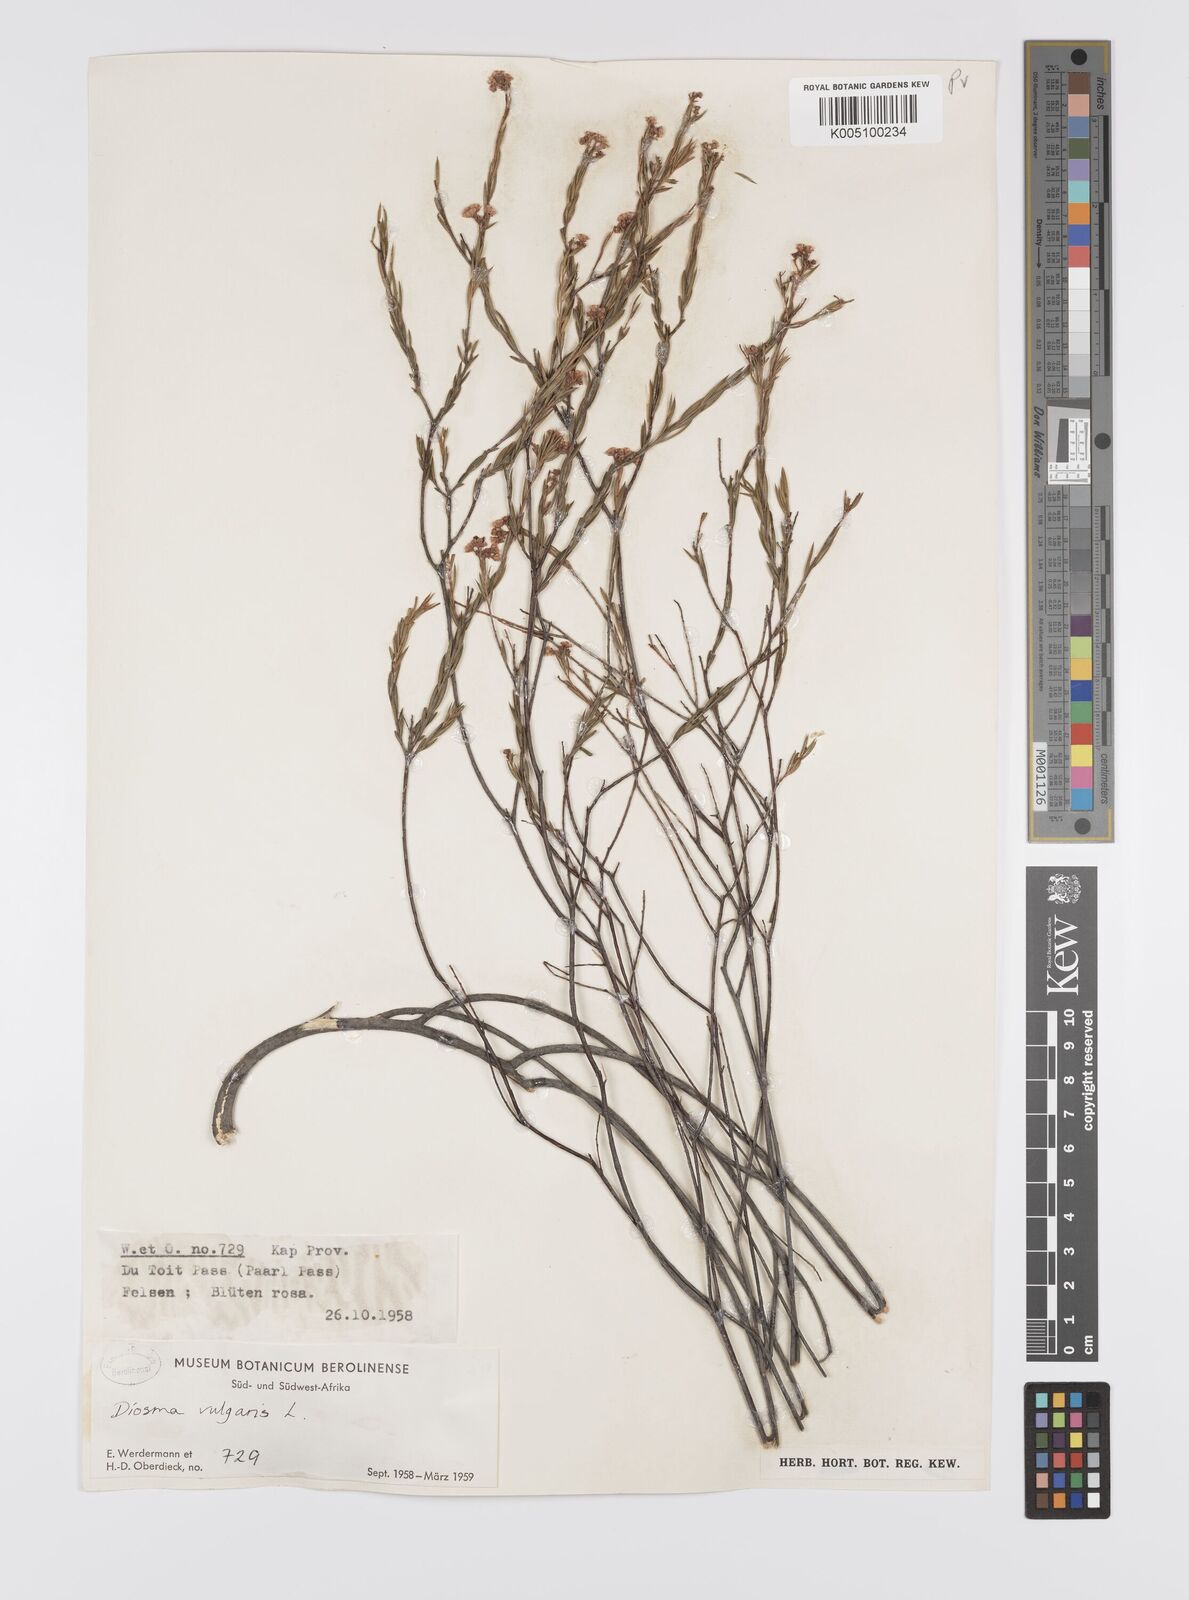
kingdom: Plantae
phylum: Tracheophyta
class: Magnoliopsida
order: Sapindales
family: Rutaceae
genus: Diosma
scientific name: Diosma hirsuta
